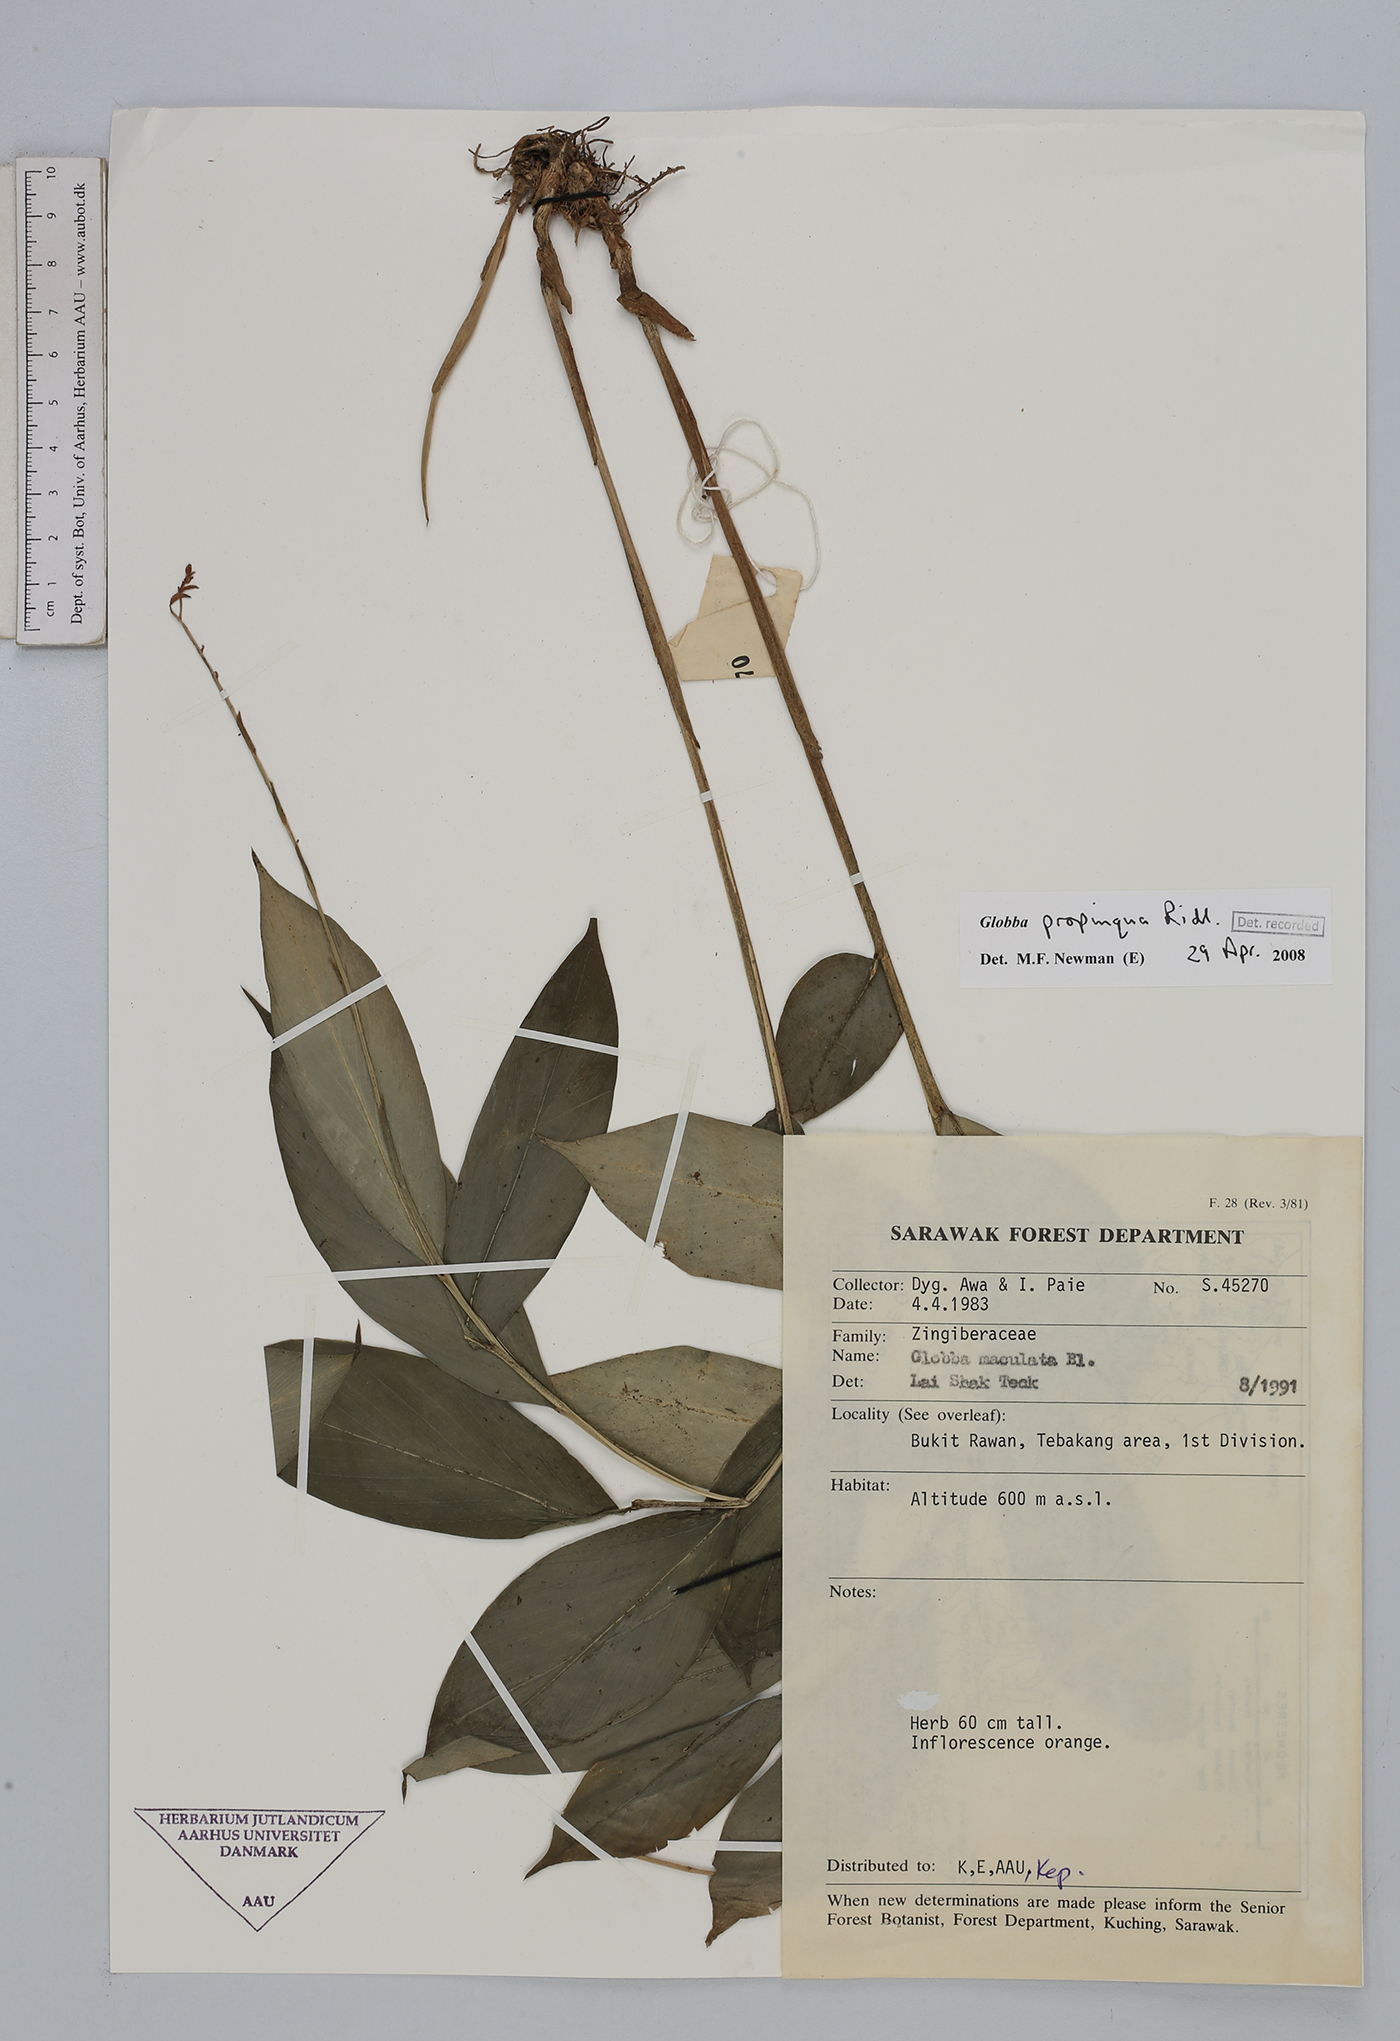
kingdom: Plantae
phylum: Tracheophyta
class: Liliopsida
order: Zingiberales
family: Zingiberaceae
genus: Globba
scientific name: Globba propinqua
